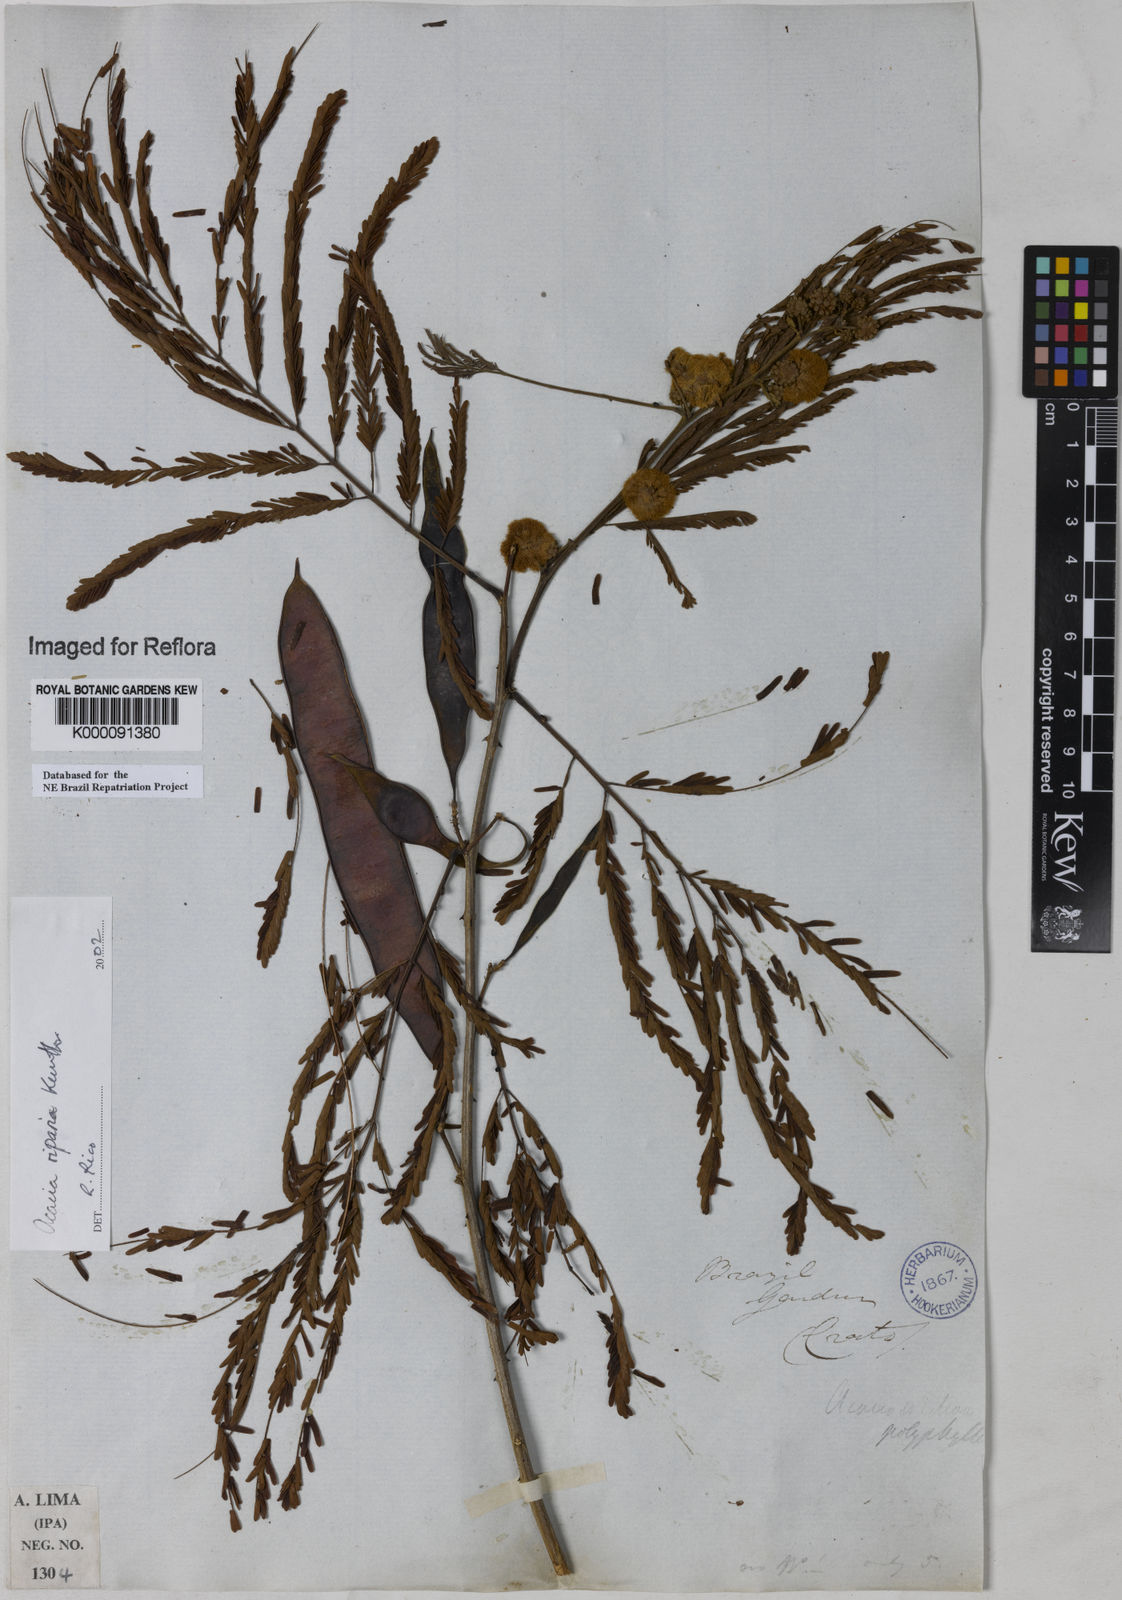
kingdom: Plantae
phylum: Tracheophyta
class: Magnoliopsida
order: Fabales
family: Fabaceae
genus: Senegalia
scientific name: Senegalia riparia
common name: Catch-and-keep
